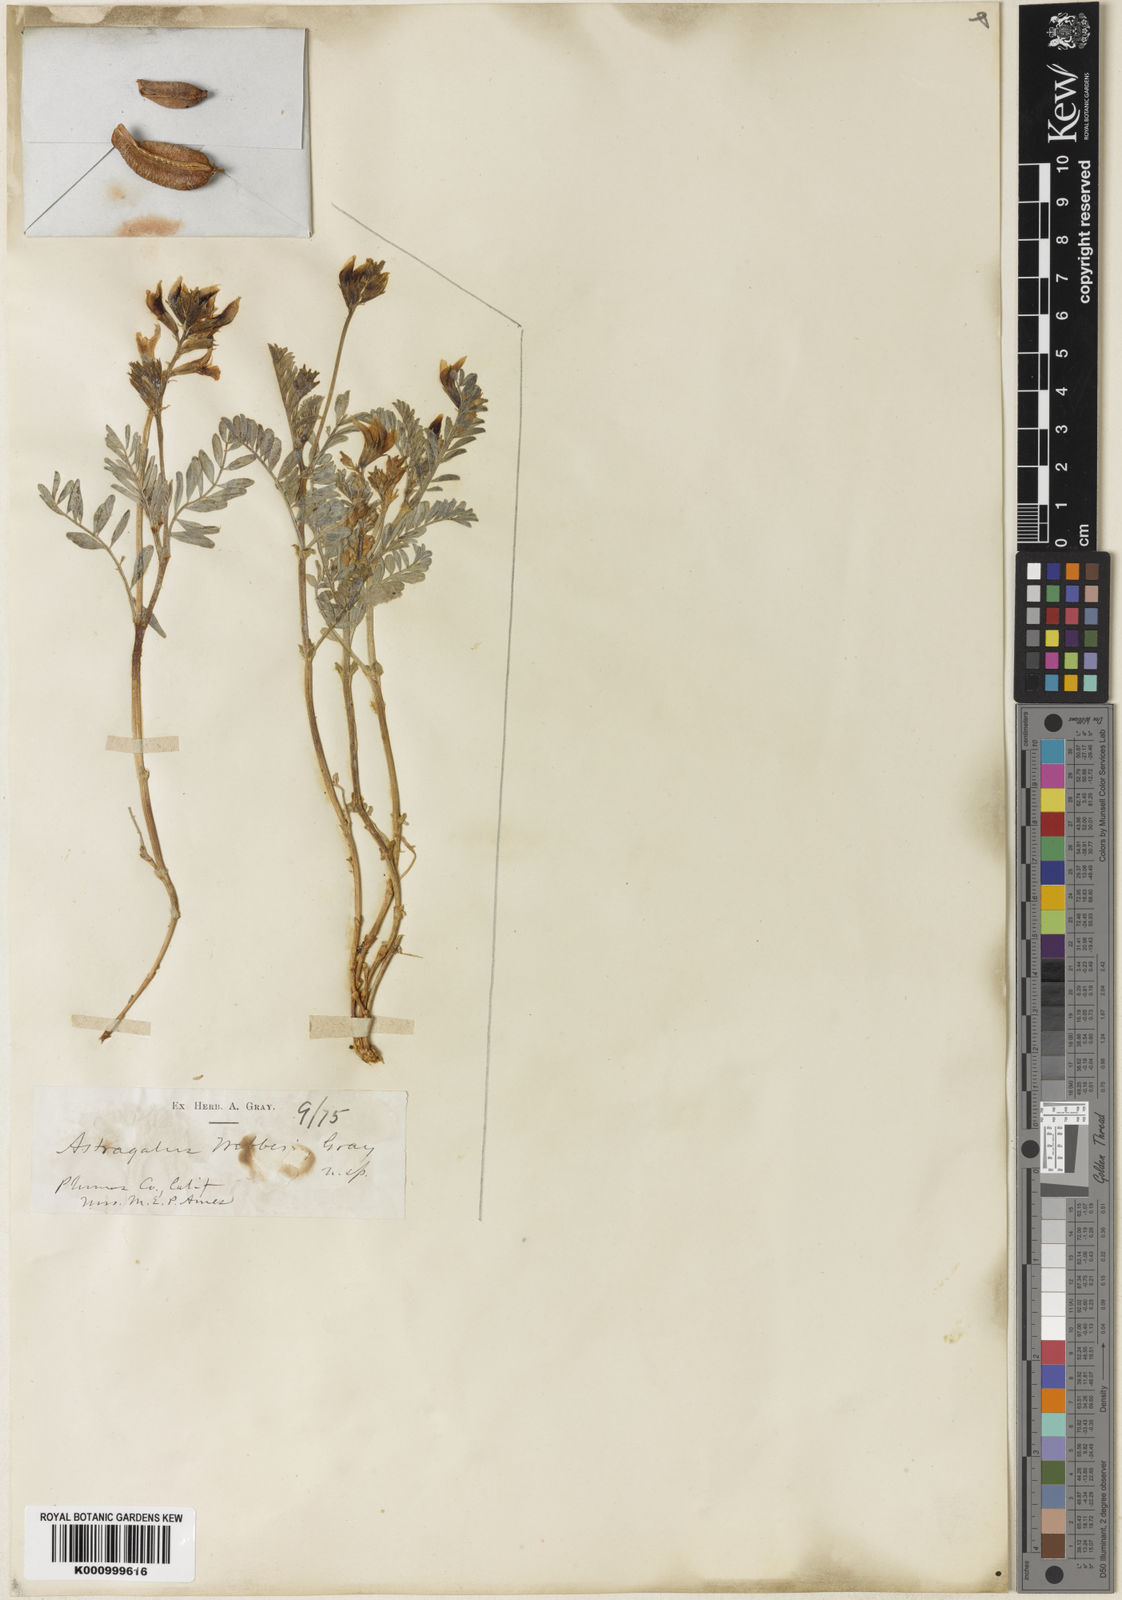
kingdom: Plantae
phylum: Tracheophyta
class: Magnoliopsida
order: Fabales
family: Fabaceae
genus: Astragalus
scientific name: Astragalus webberi
